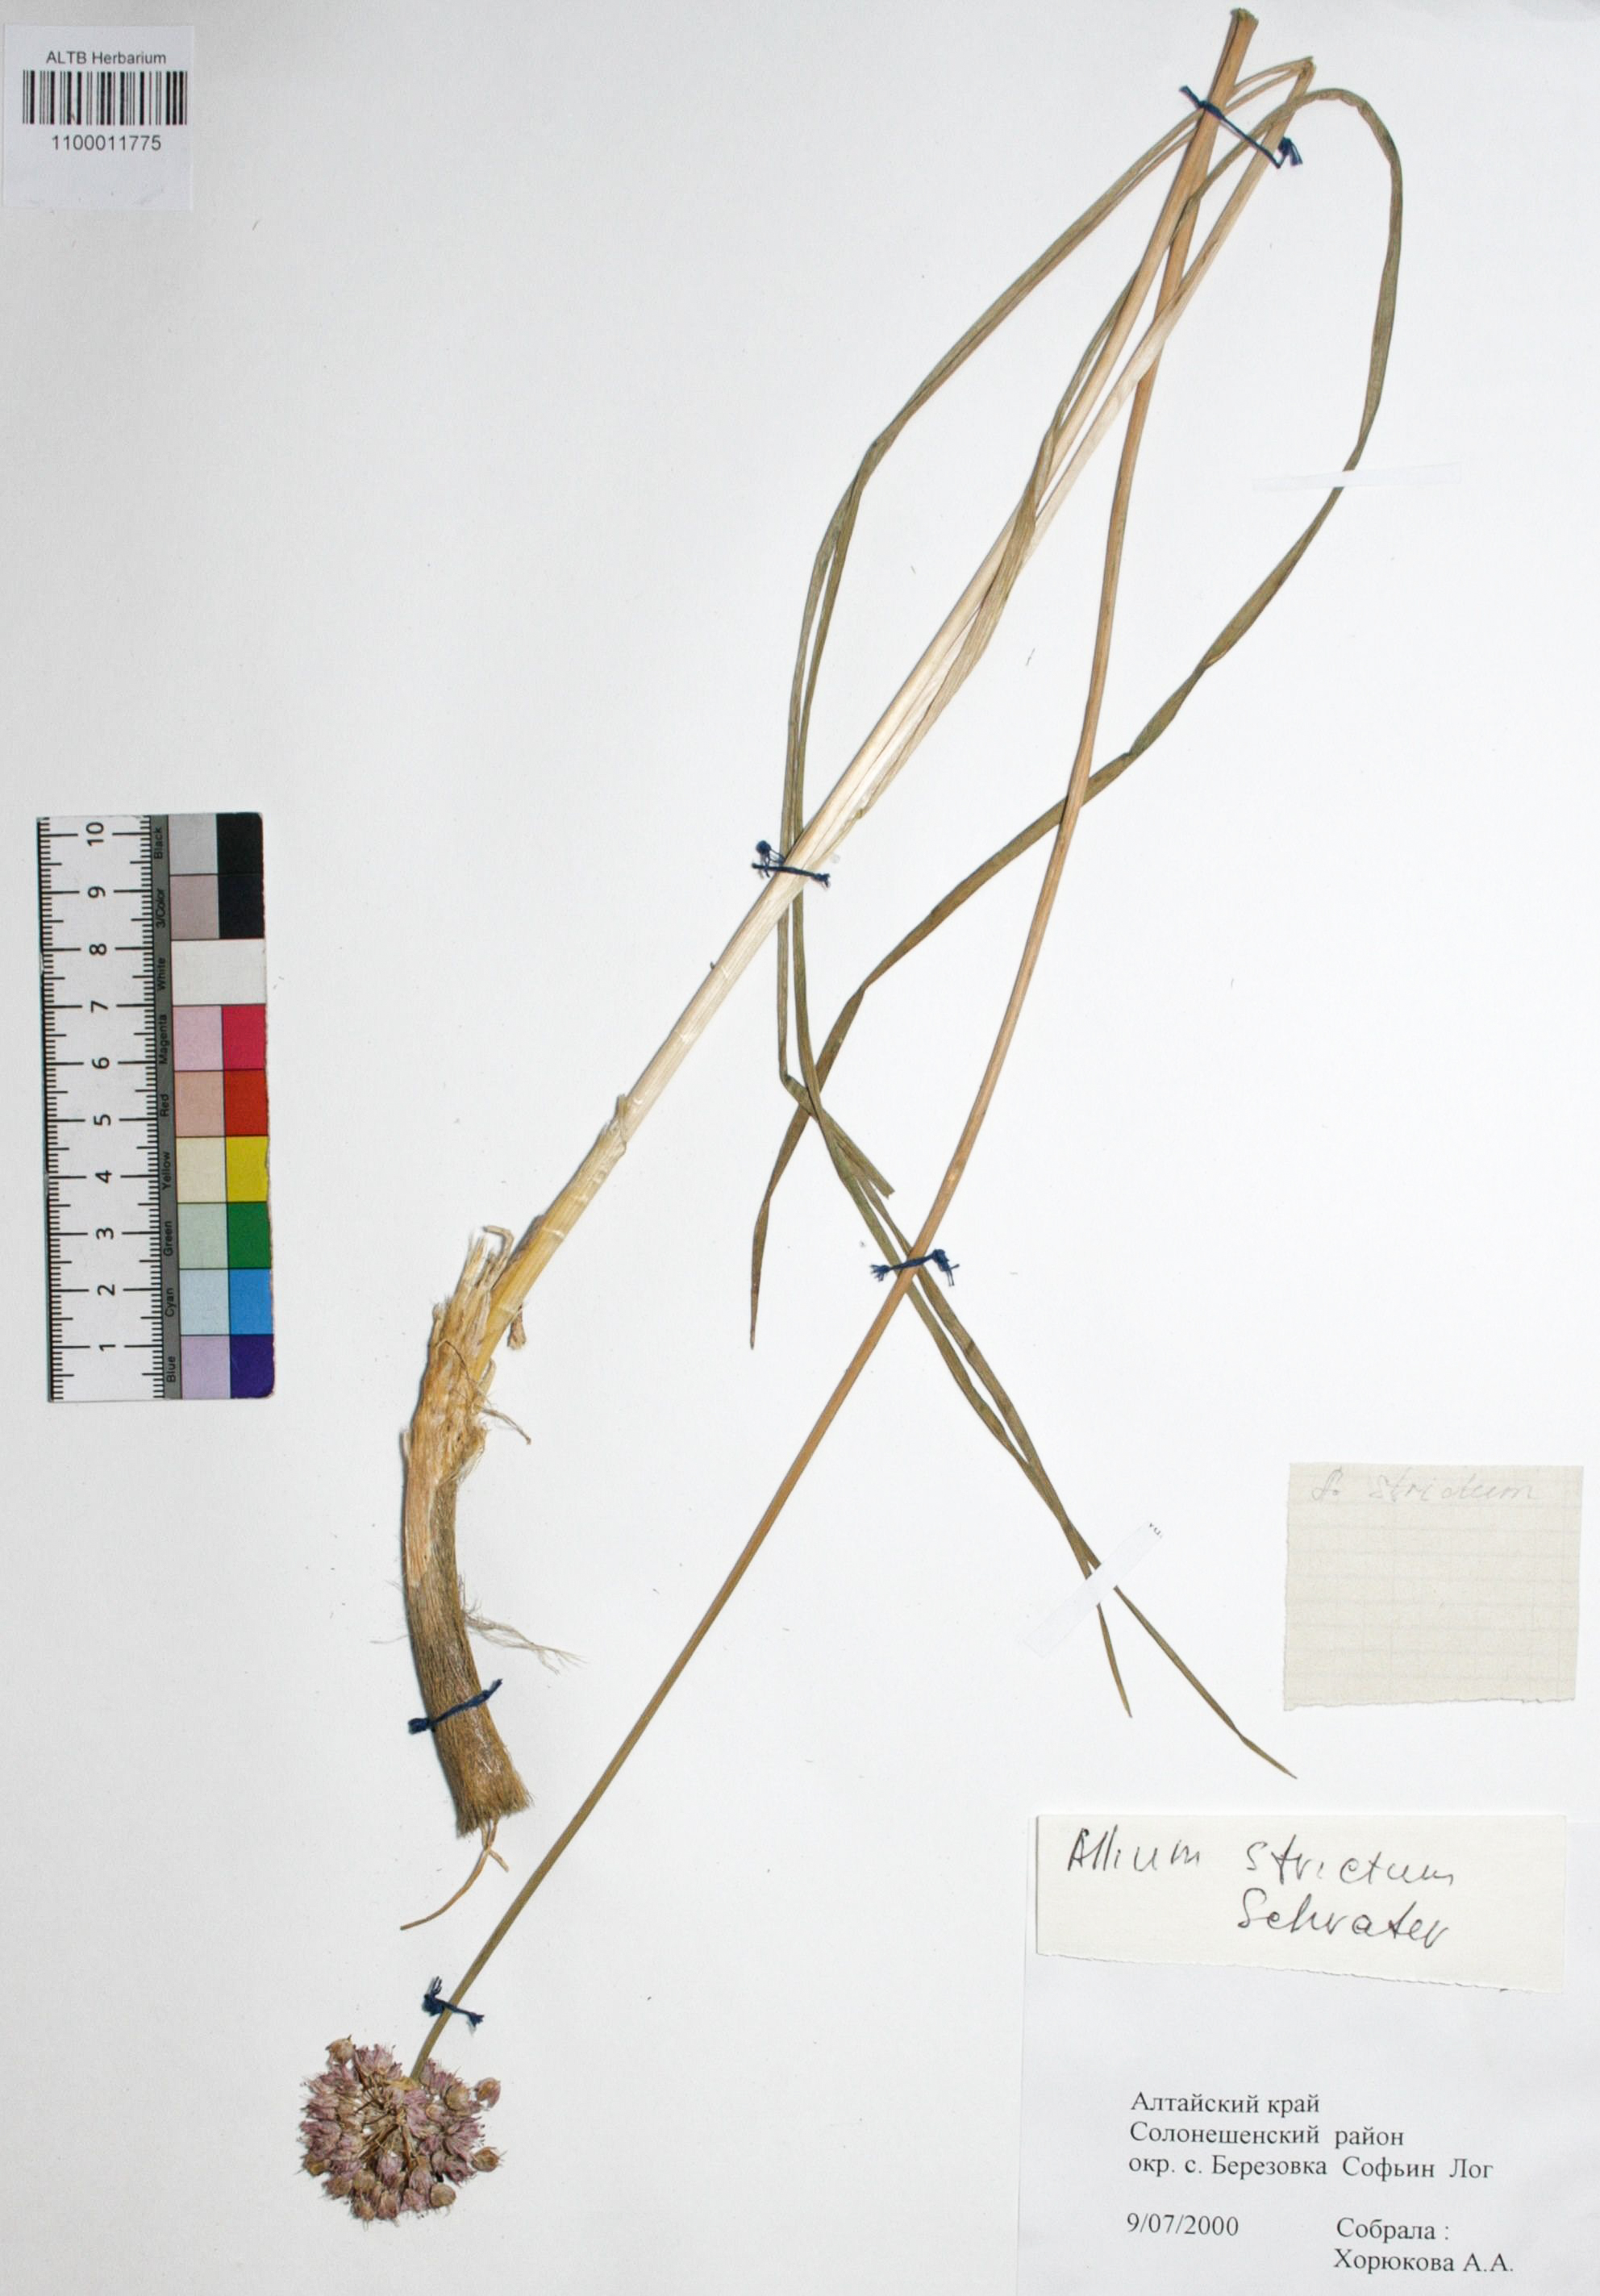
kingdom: Plantae
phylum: Tracheophyta
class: Liliopsida
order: Asparagales
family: Amaryllidaceae
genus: Allium
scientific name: Allium strictum
